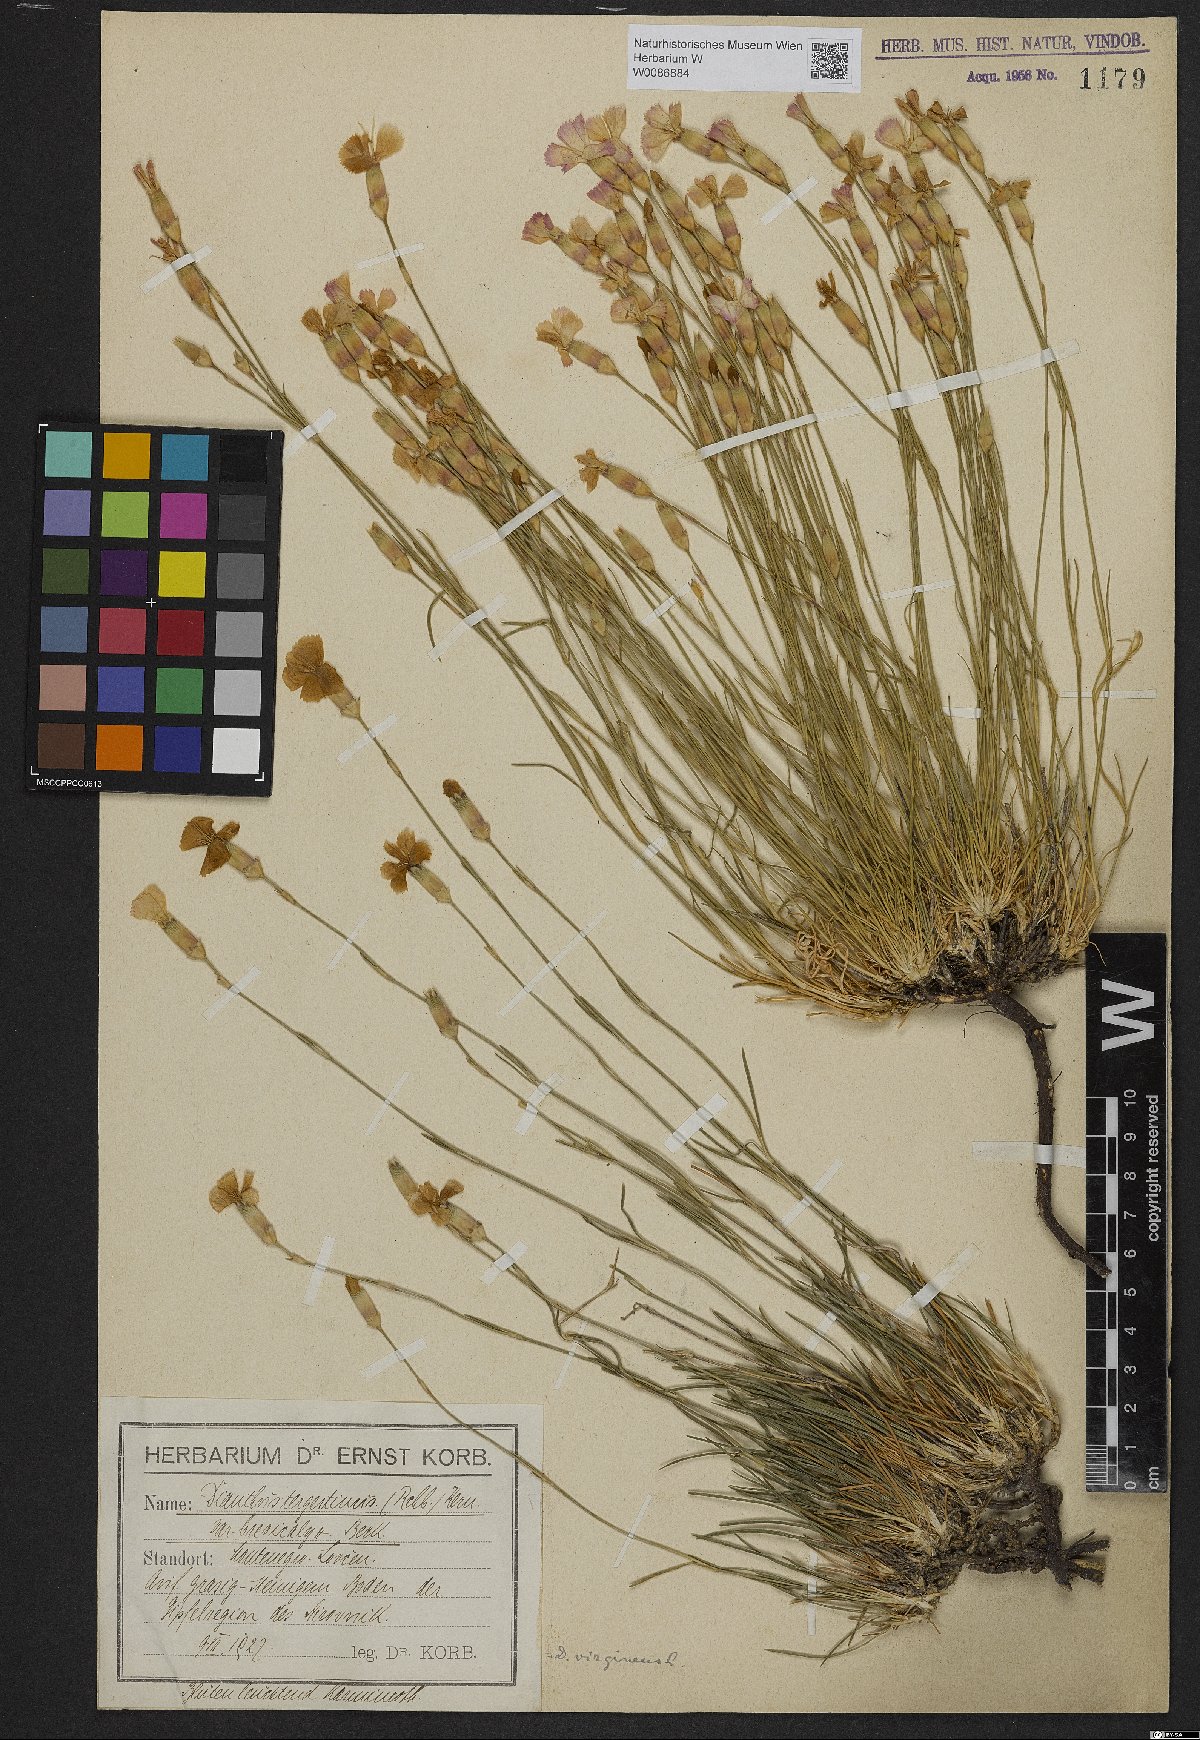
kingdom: Plantae
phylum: Tracheophyta
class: Magnoliopsida
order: Caryophyllales
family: Caryophyllaceae
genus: Dianthus
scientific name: Dianthus sylvestris
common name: Wood pink
